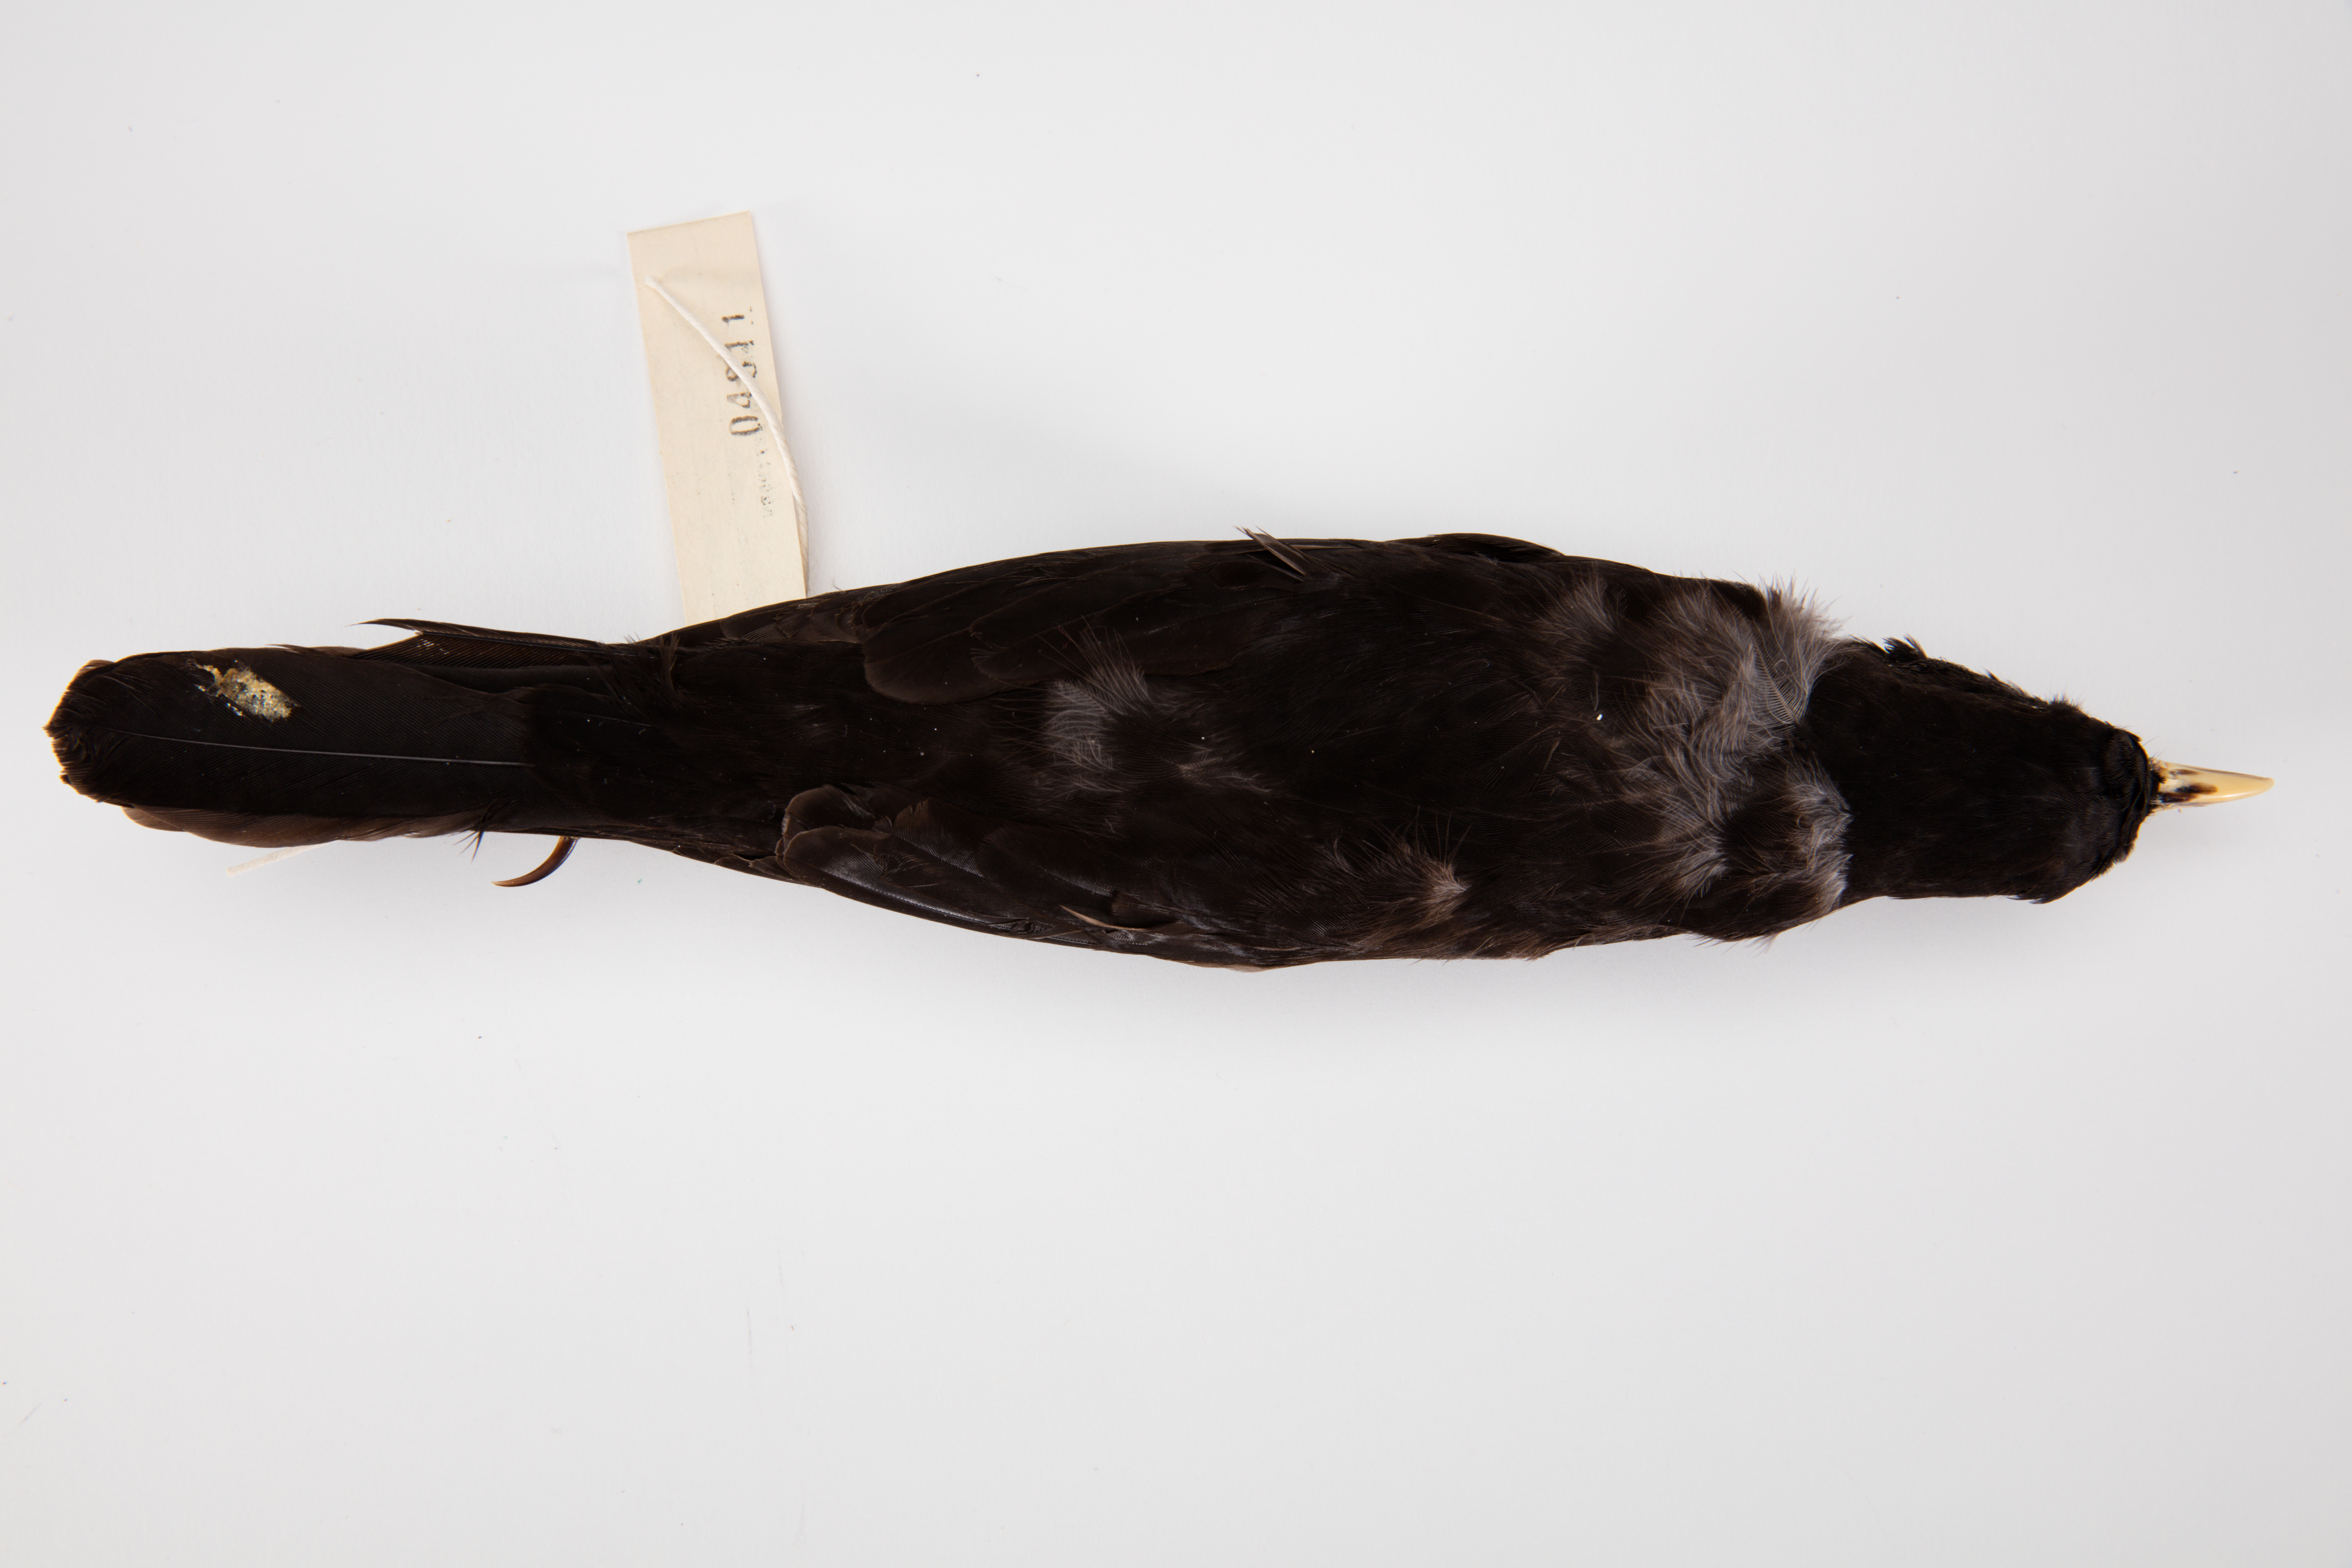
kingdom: Animalia
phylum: Chordata
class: Aves
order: Passeriformes
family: Turdidae
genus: Turdus
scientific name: Turdus merula
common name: Common blackbird
